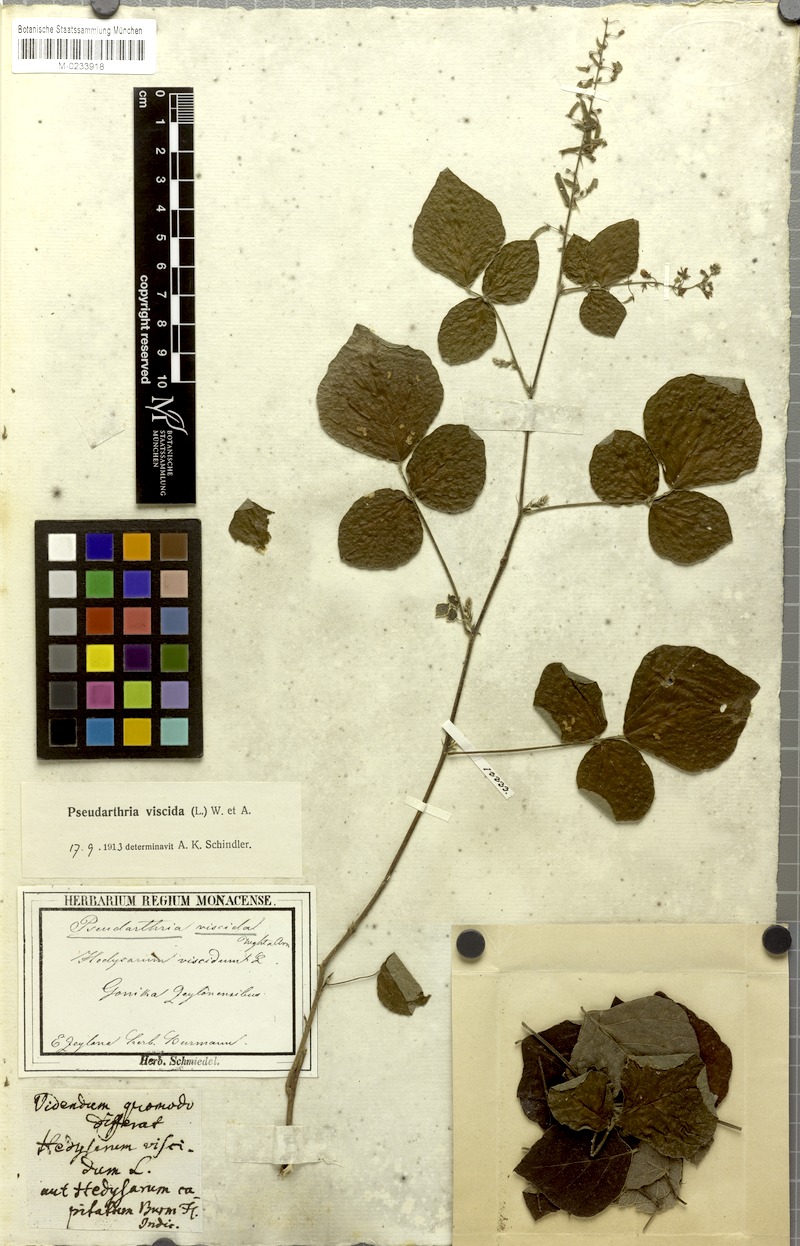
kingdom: Plantae
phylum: Tracheophyta
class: Magnoliopsida
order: Fabales
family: Fabaceae
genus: Pseudarthria
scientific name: Pseudarthria viscida
